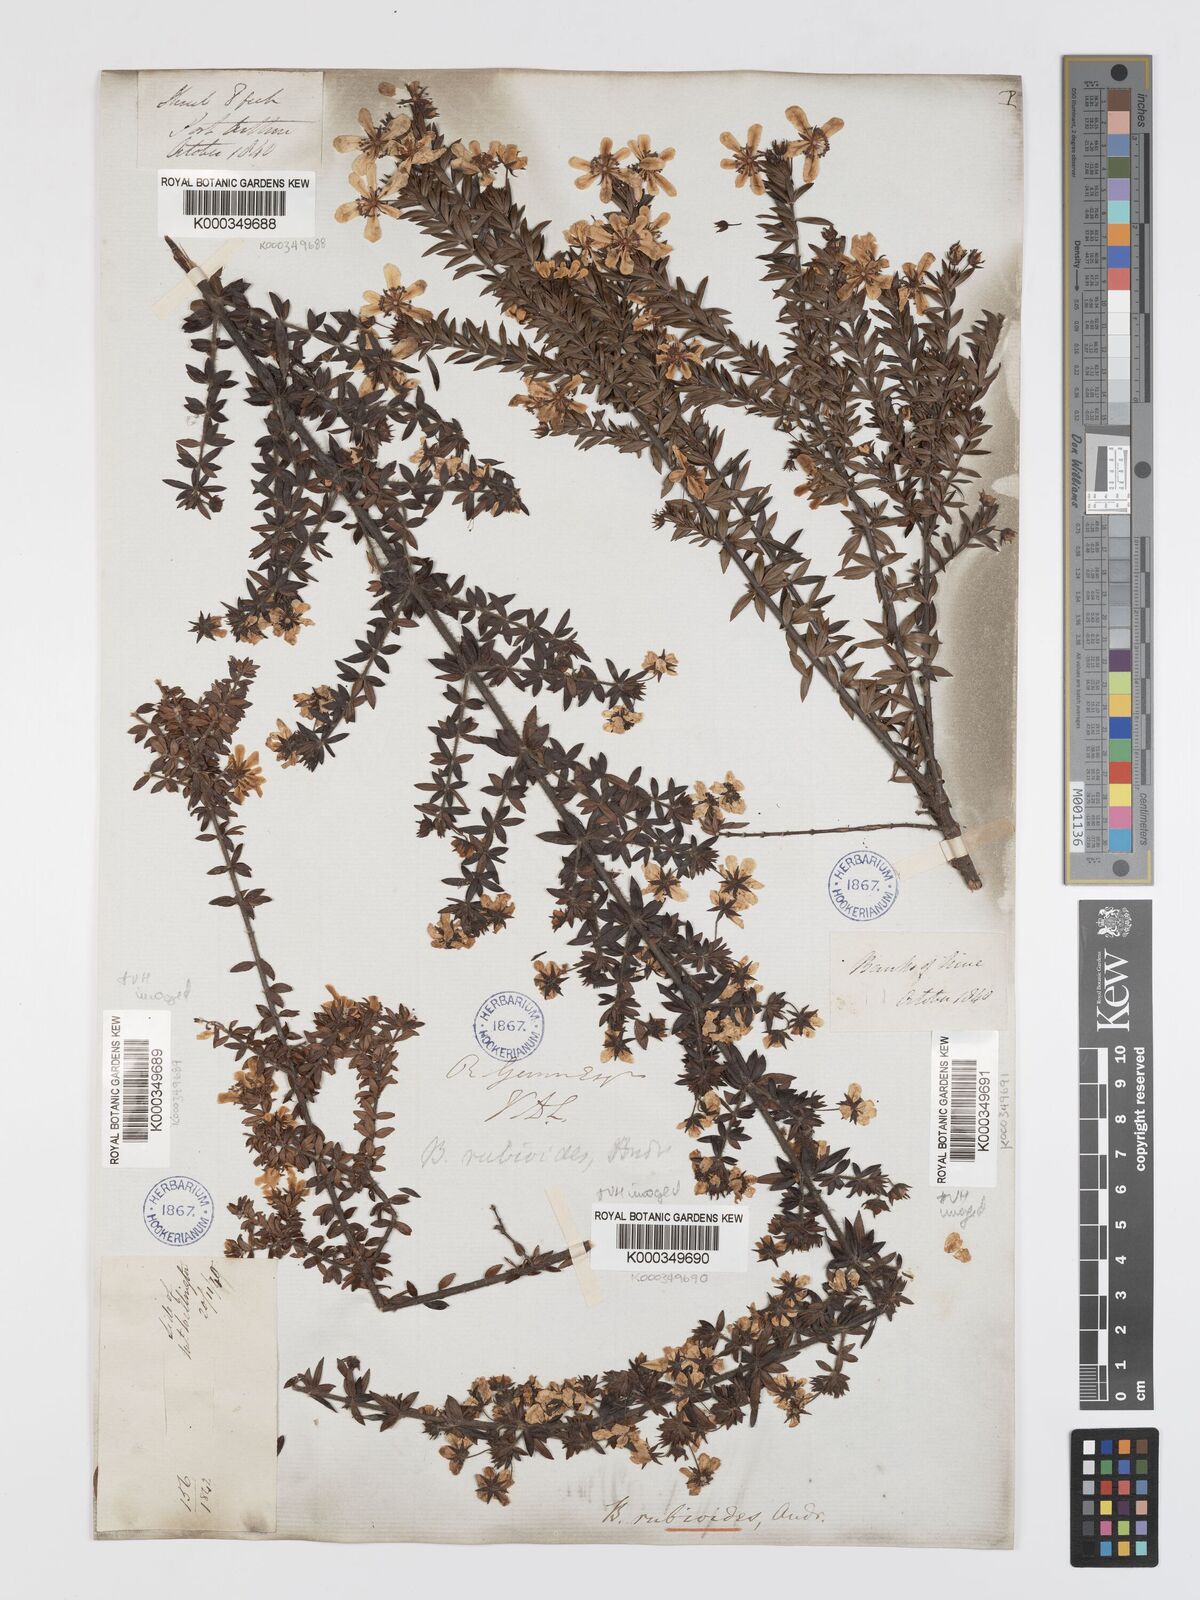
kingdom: Plantae
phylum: Tracheophyta
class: Magnoliopsida
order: Oxalidales
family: Cunoniaceae
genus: Bauera
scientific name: Bauera rubioides
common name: River-rose
